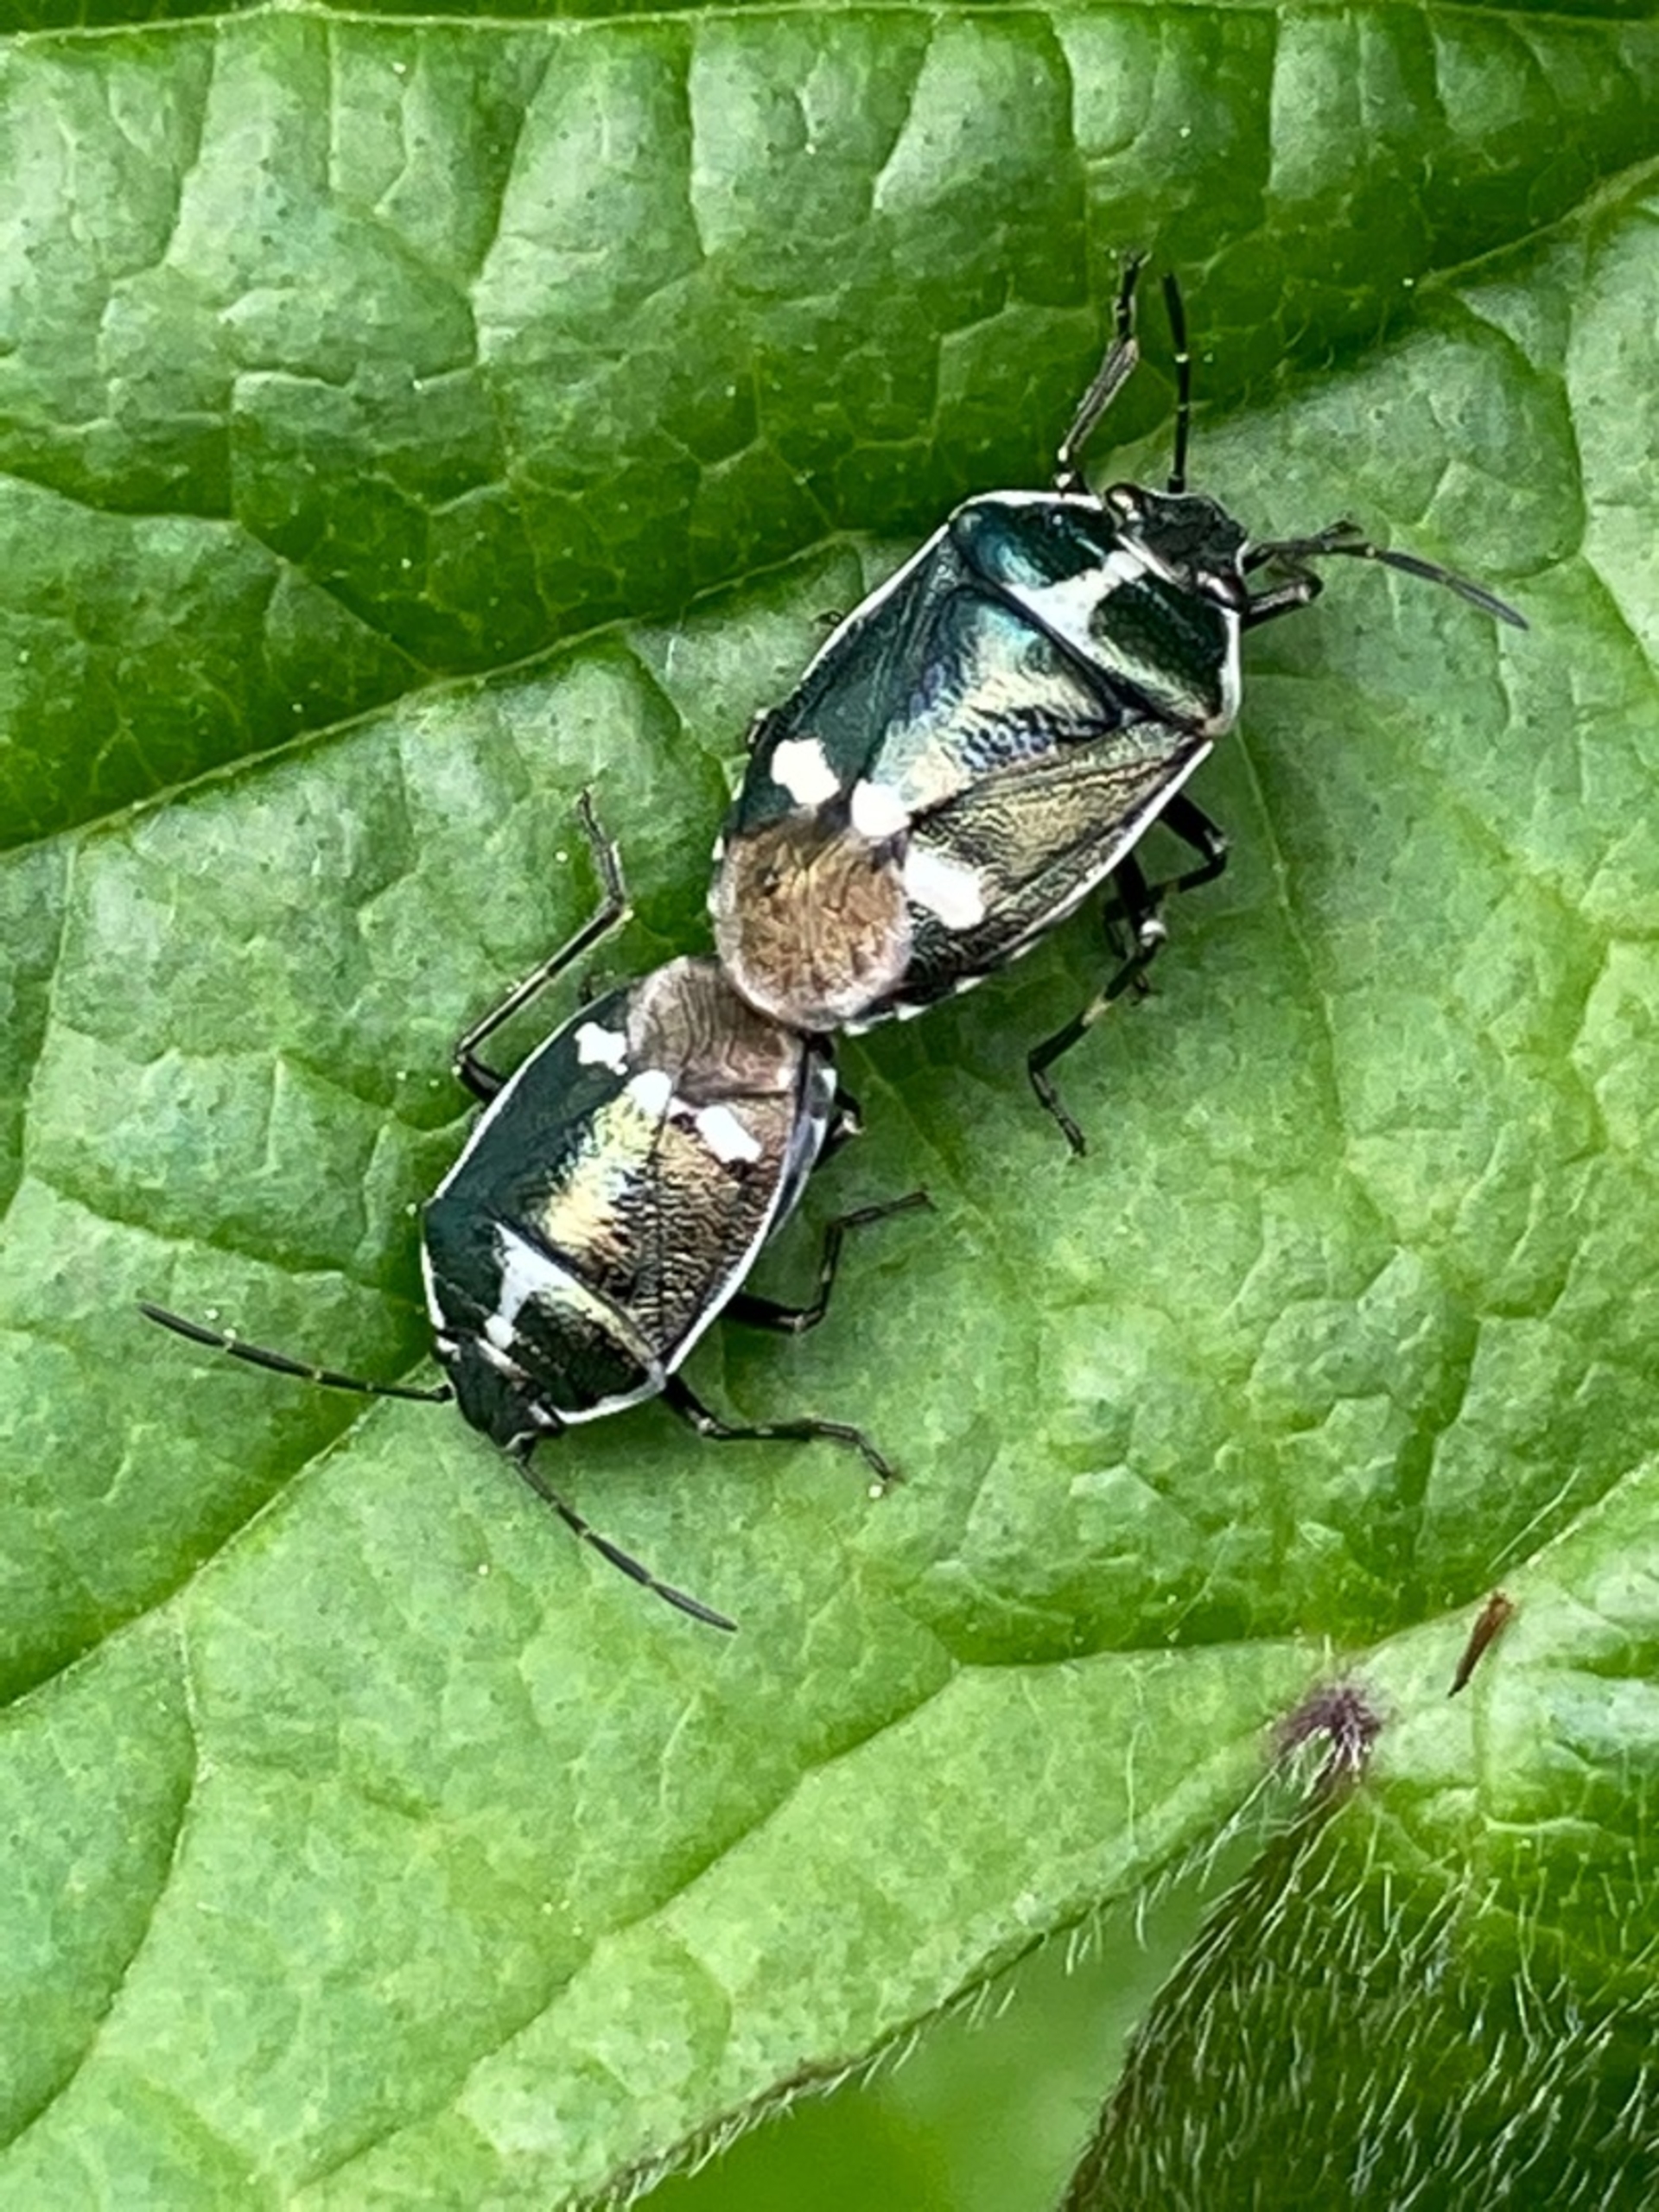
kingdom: Animalia
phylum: Arthropoda
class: Insecta
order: Hemiptera
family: Pentatomidae
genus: Eurydema
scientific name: Eurydema oleracea
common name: Almindelig kåltæge
